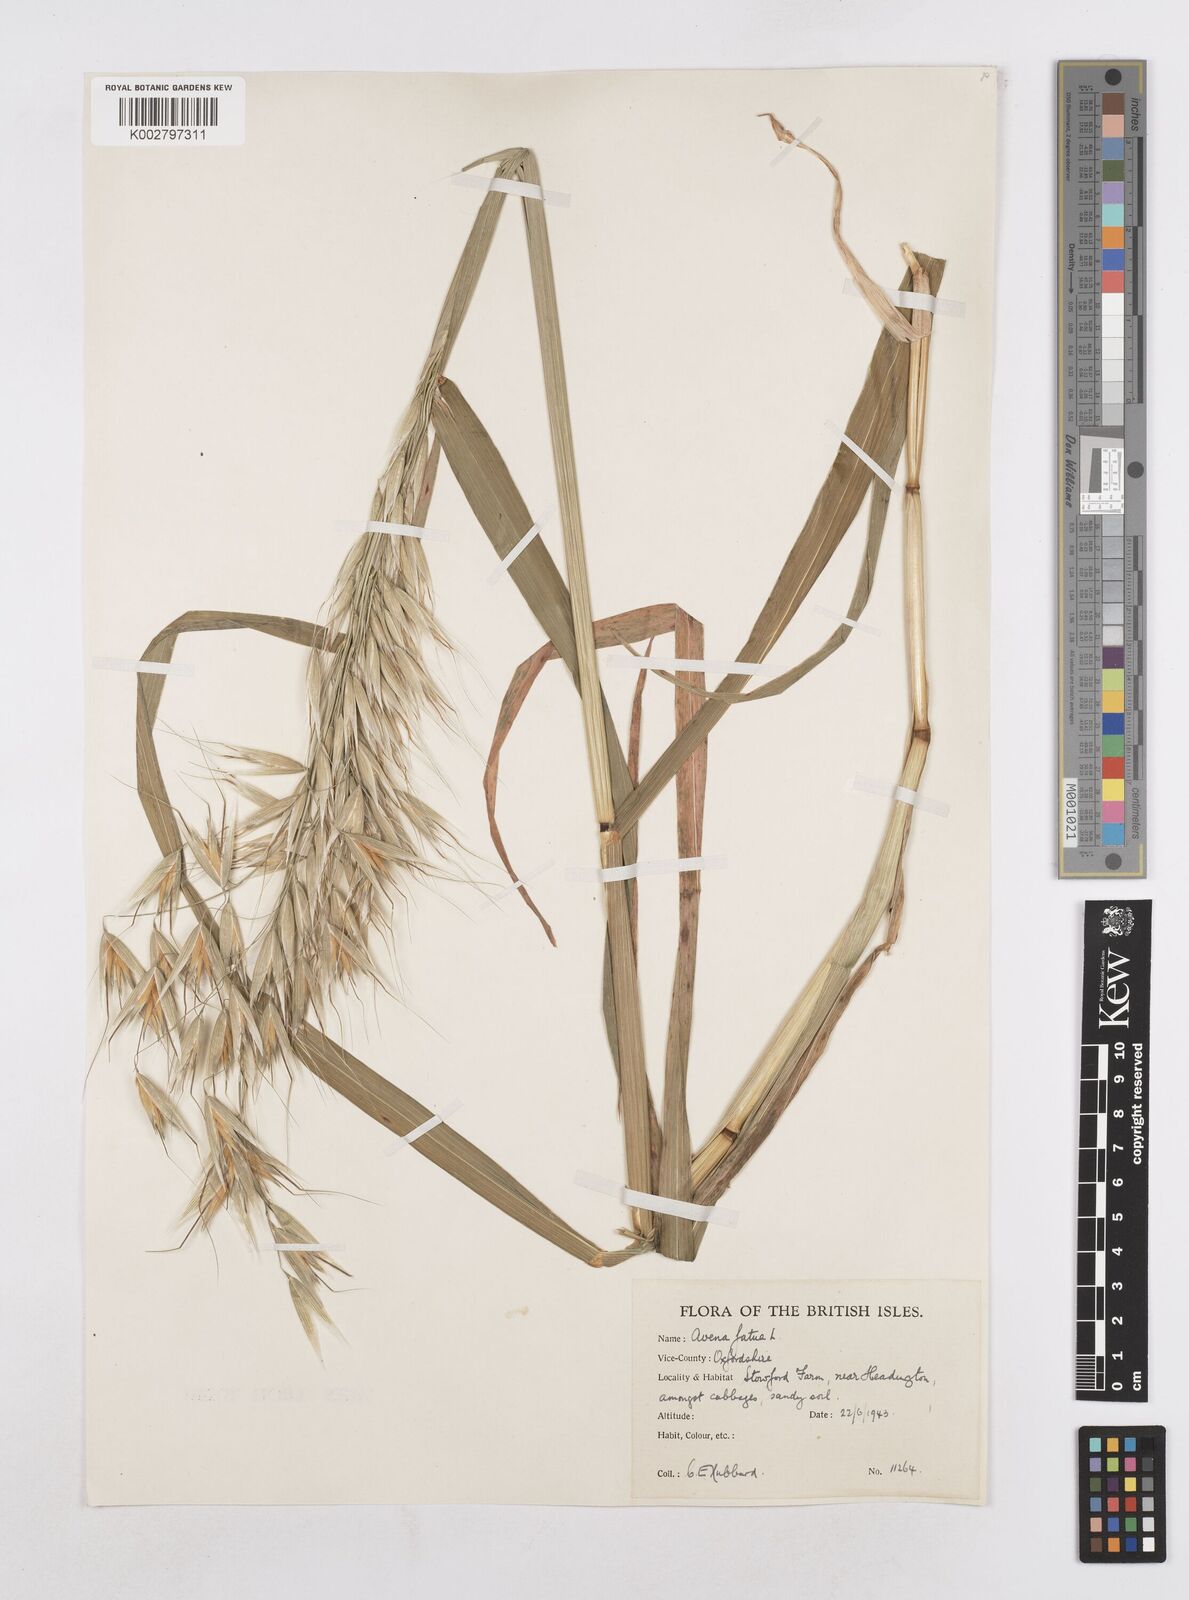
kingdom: Plantae
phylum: Tracheophyta
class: Liliopsida
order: Poales
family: Poaceae
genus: Avena
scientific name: Avena fatua
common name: Wild oat
